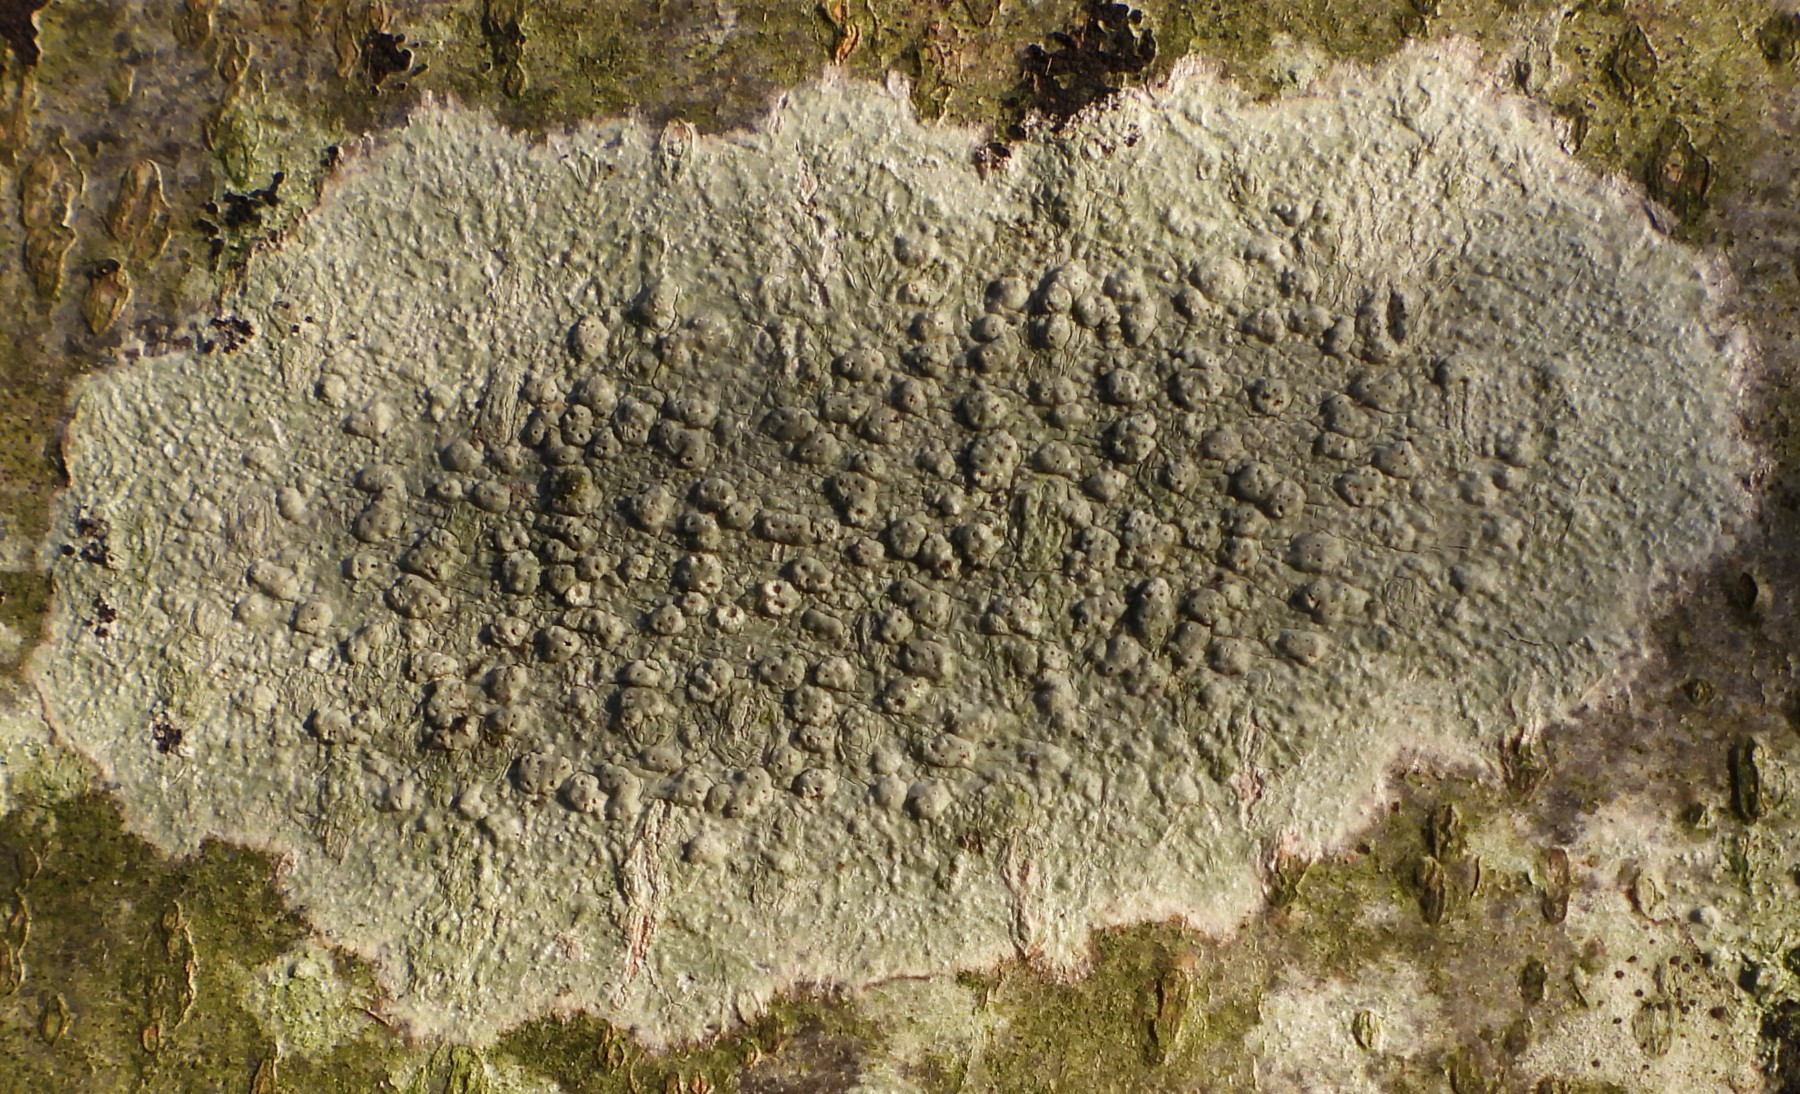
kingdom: Fungi
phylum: Ascomycota
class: Lecanoromycetes
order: Pertusariales
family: Pertusariaceae
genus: Pertusaria
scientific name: Pertusaria pertusa
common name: almindelig prikvortelav
